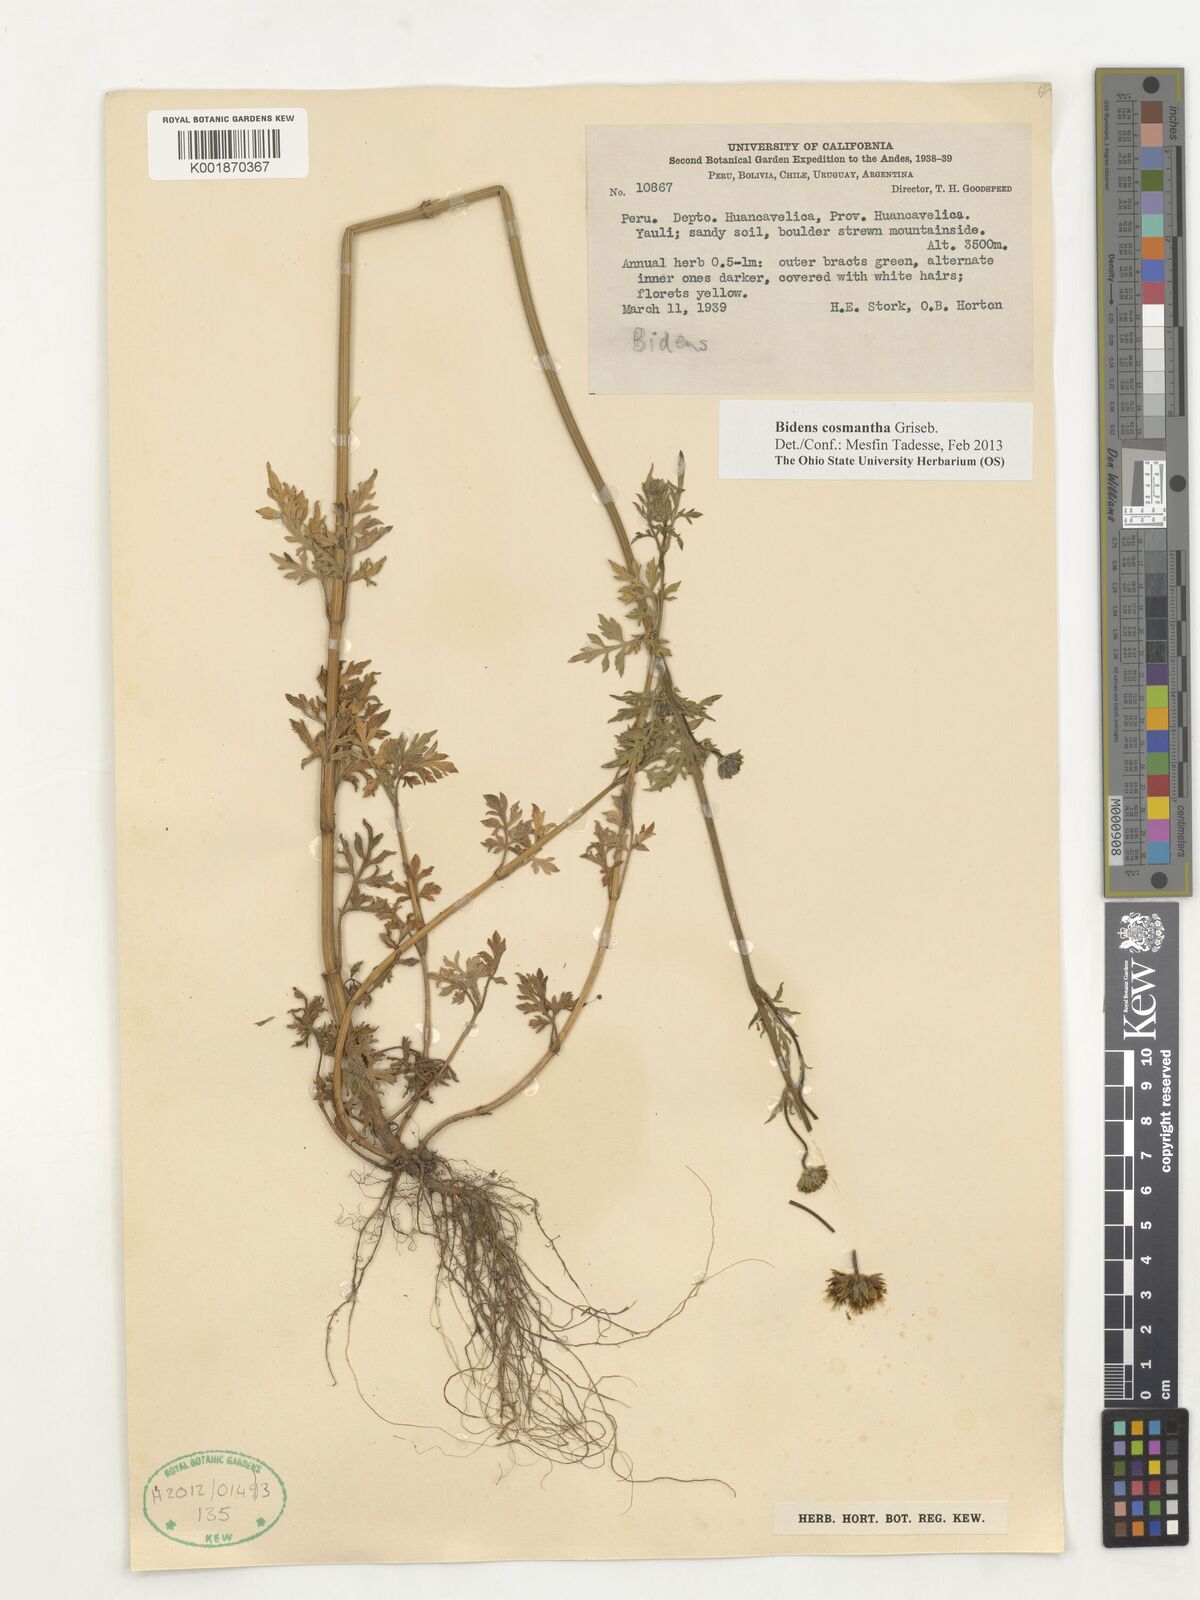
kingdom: Plantae
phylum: Tracheophyta
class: Magnoliopsida
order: Asterales
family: Asteraceae
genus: Bidens
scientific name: Bidens andicola
